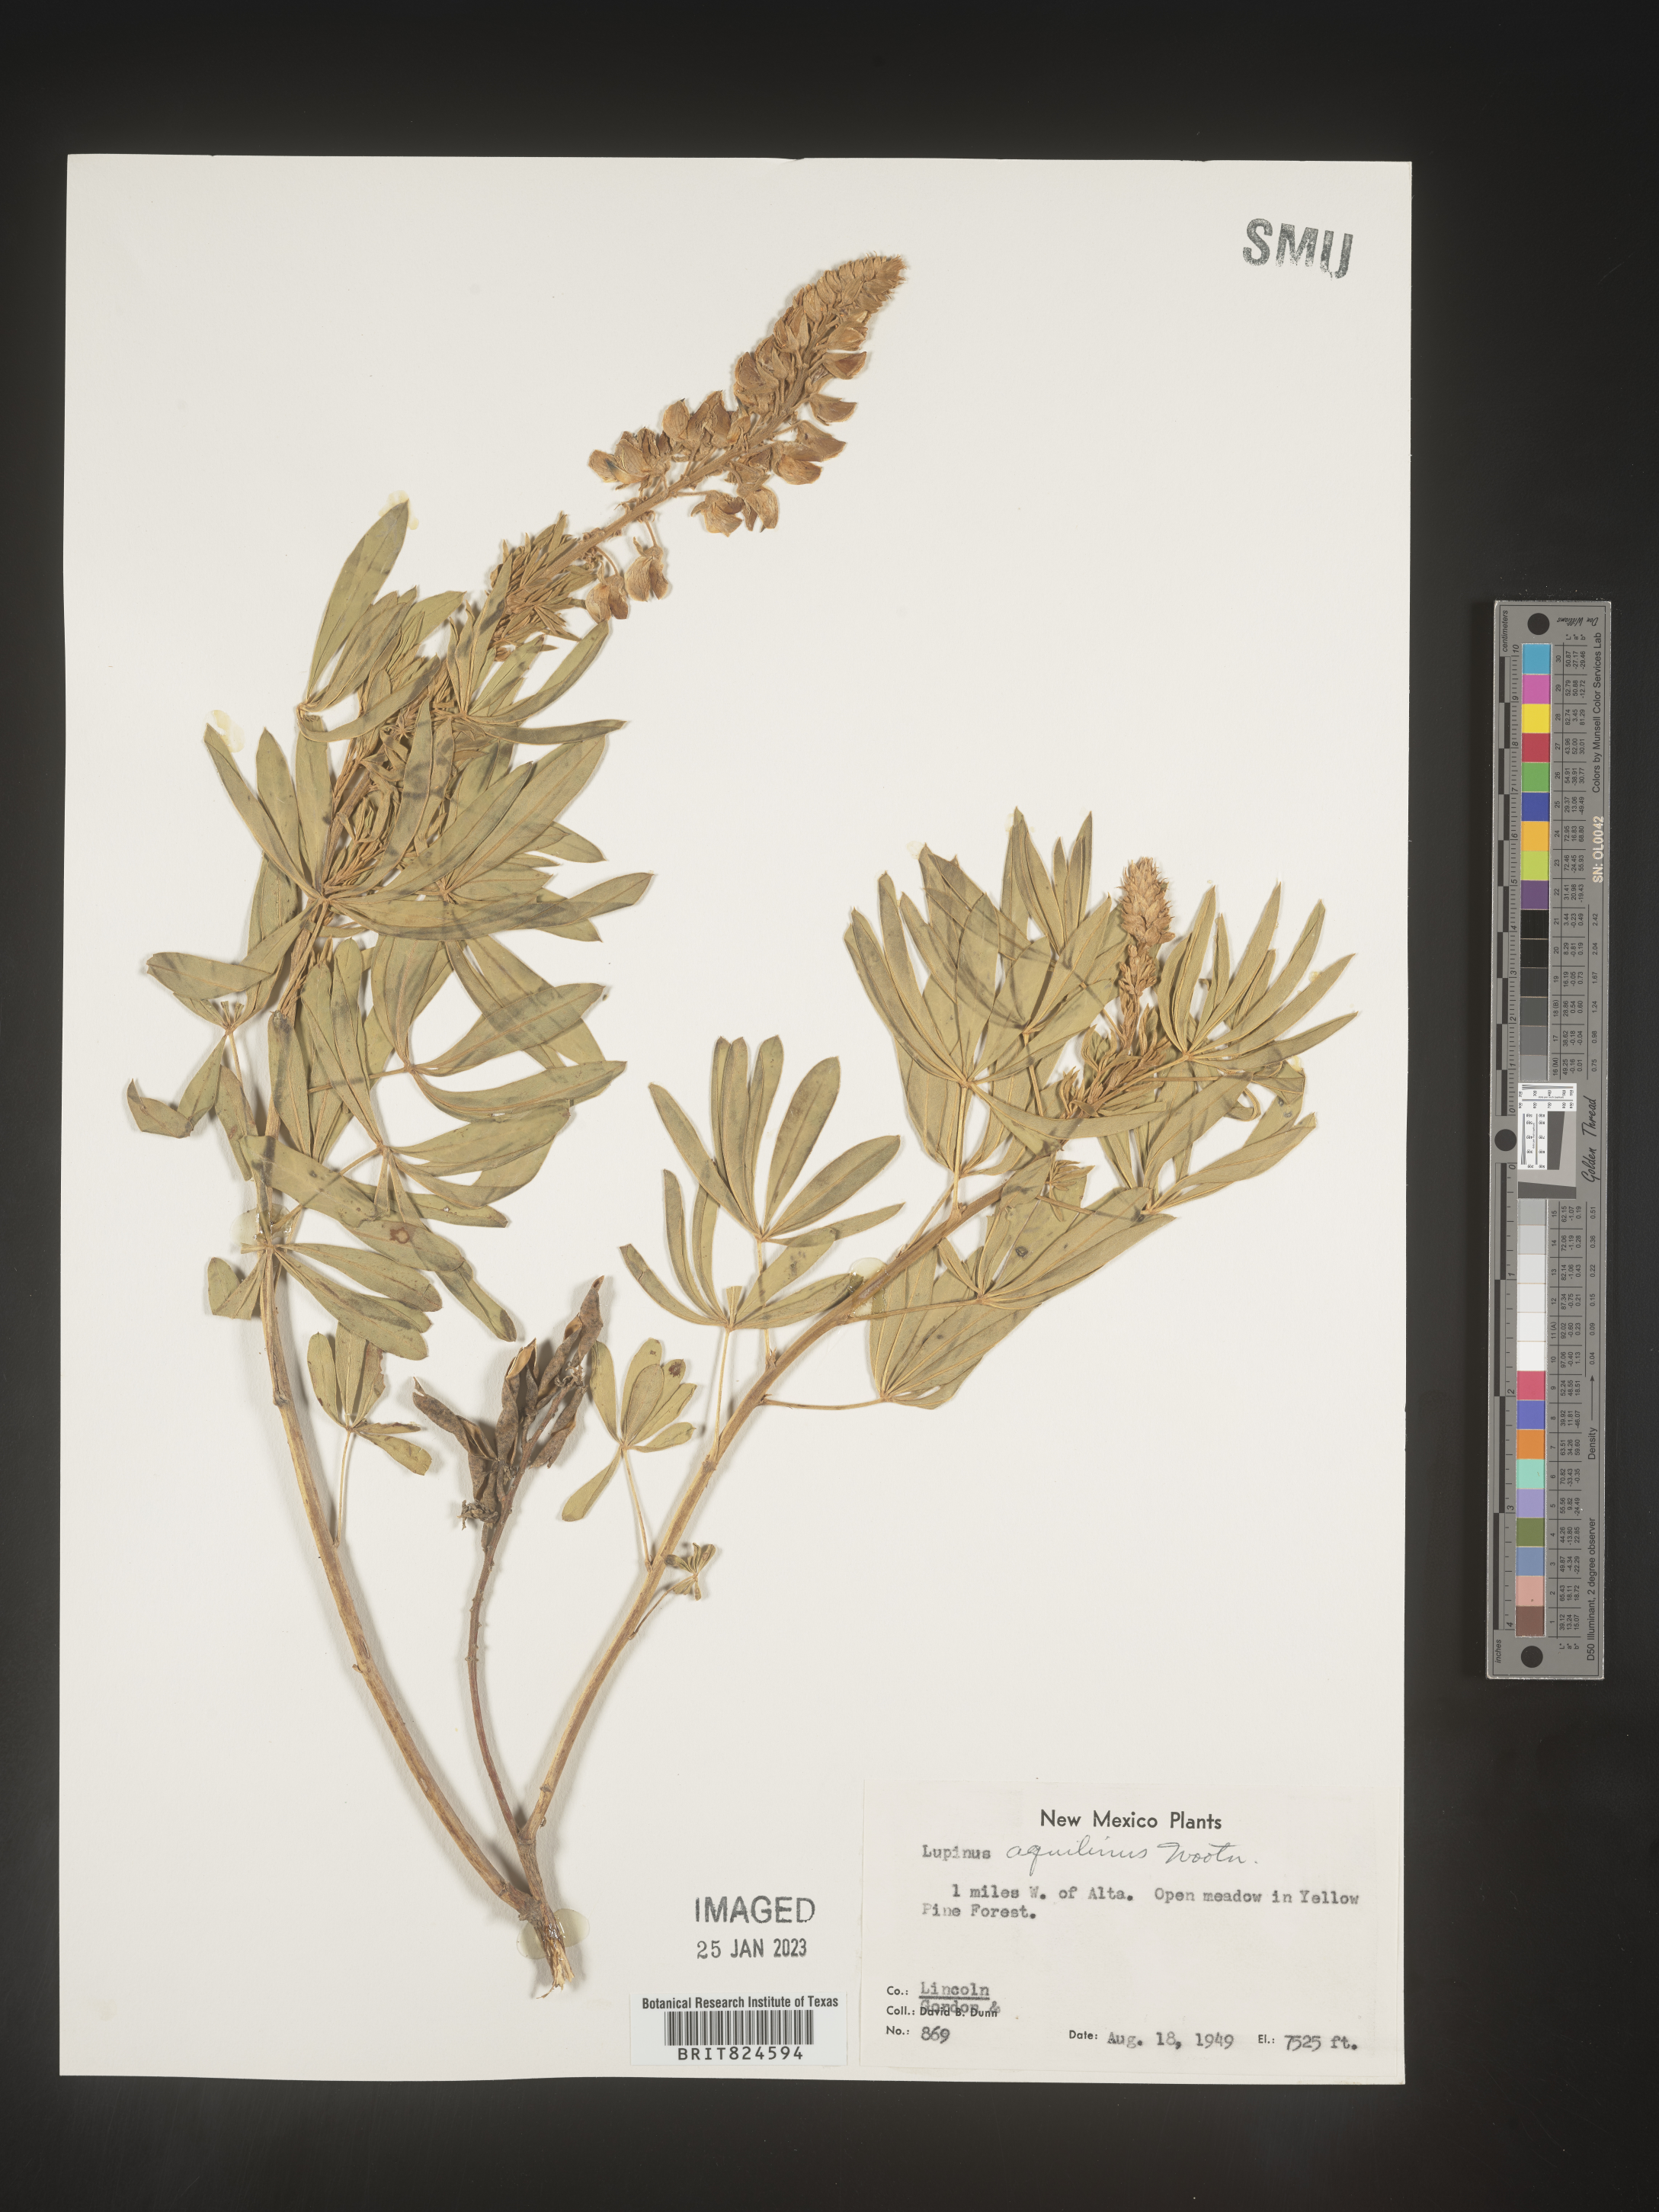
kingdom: Plantae
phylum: Tracheophyta
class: Magnoliopsida
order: Fabales
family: Fabaceae
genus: Lupinus
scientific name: Lupinus
